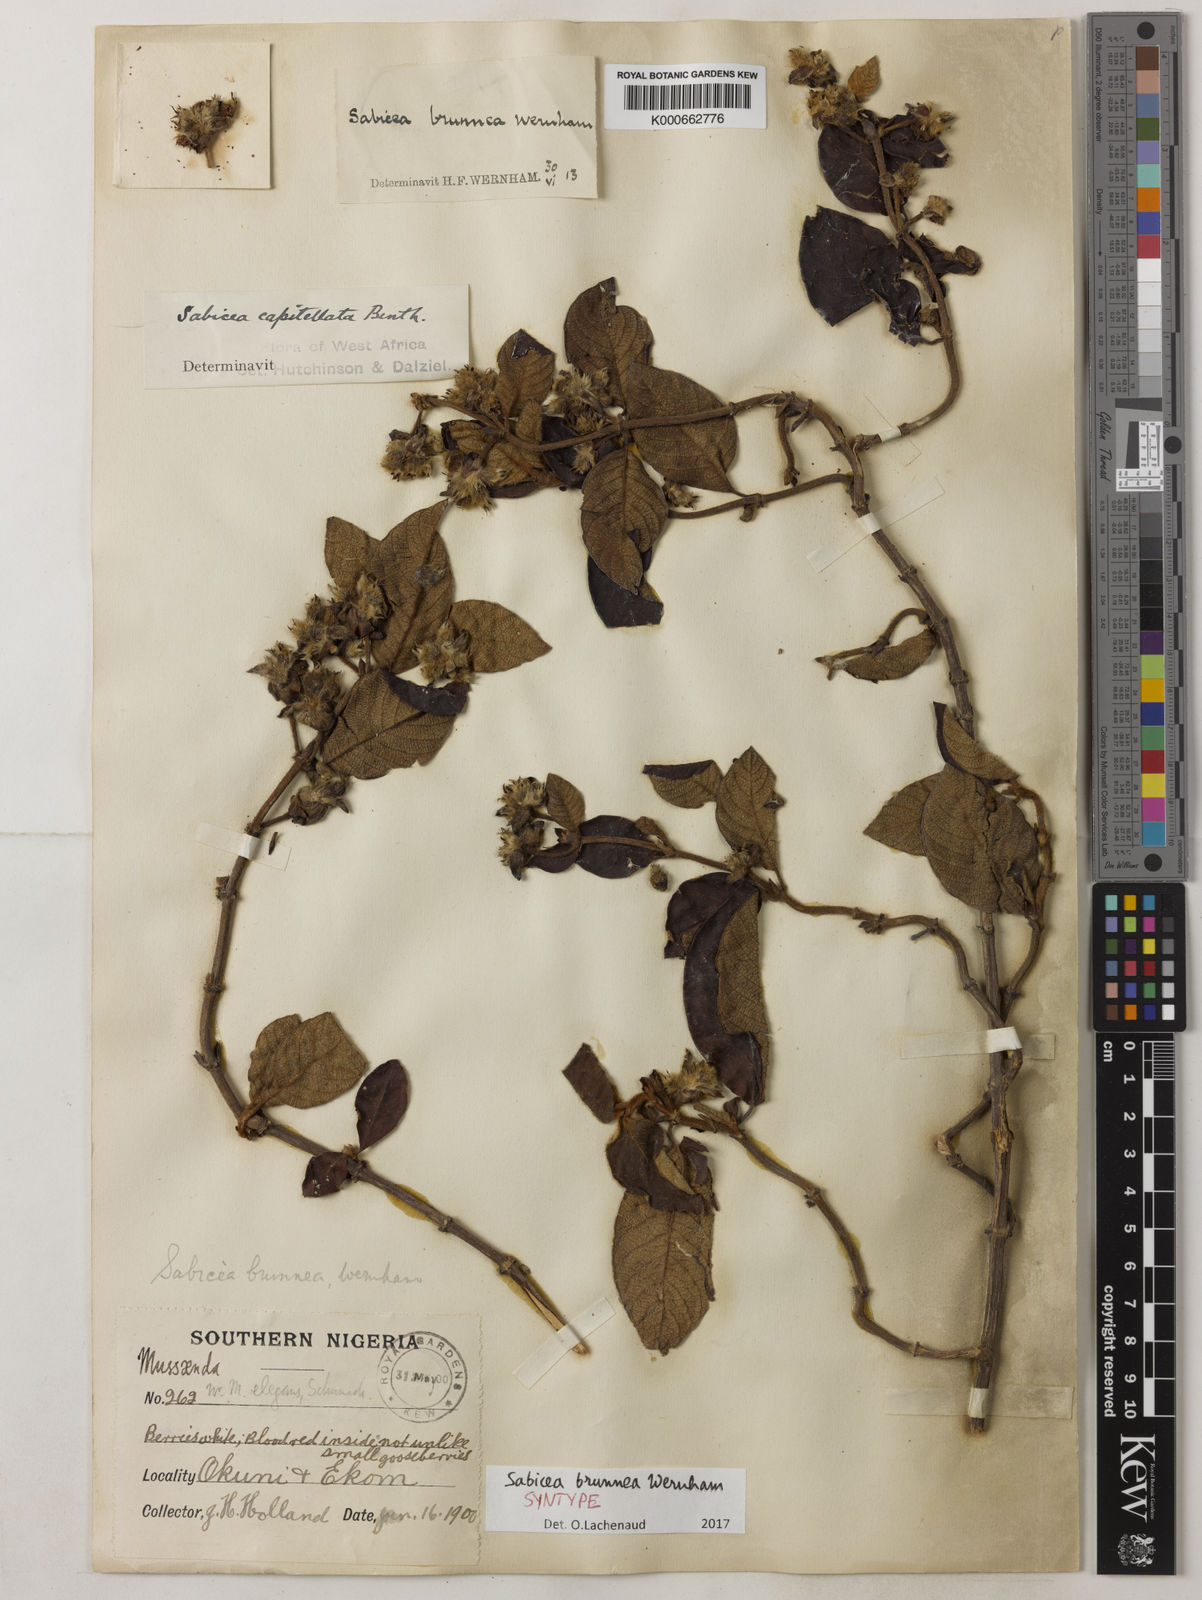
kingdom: Plantae
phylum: Tracheophyta
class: Magnoliopsida
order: Gentianales
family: Rubiaceae
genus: Sabicea
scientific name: Sabicea capitellata
